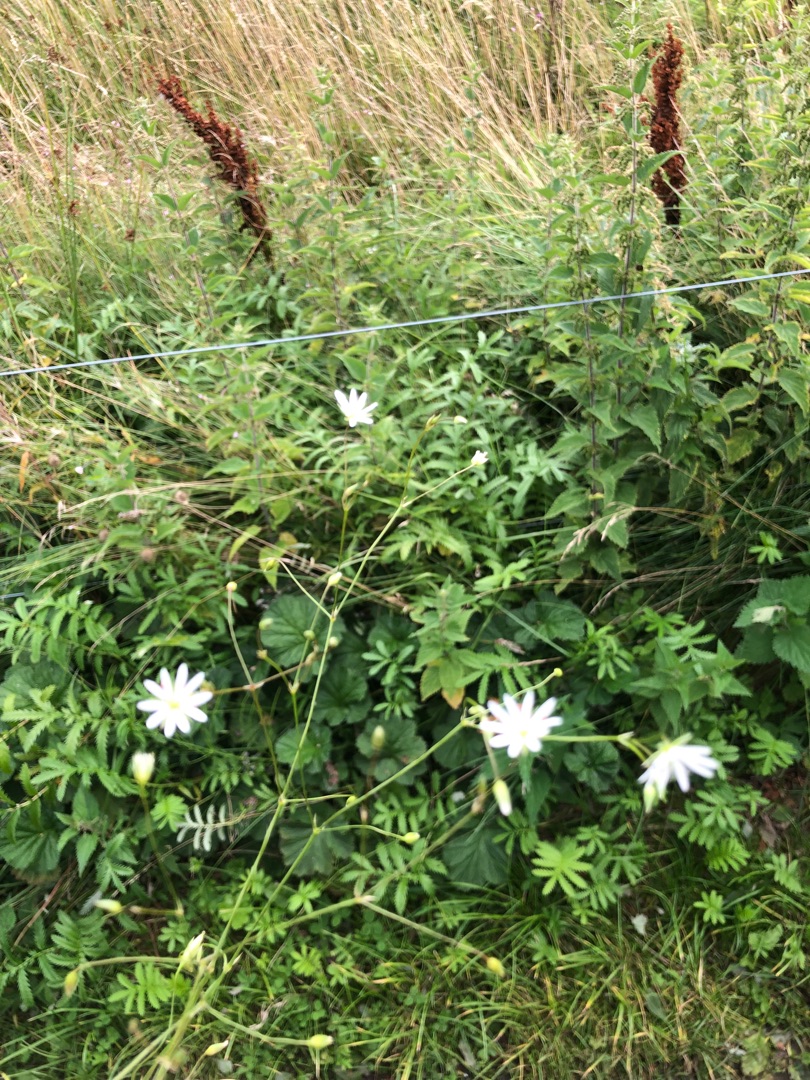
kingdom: Plantae
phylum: Tracheophyta
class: Magnoliopsida
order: Caryophyllales
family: Caryophyllaceae
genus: Stellaria
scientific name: Stellaria graminea
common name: Græsbladet fladstjerne
